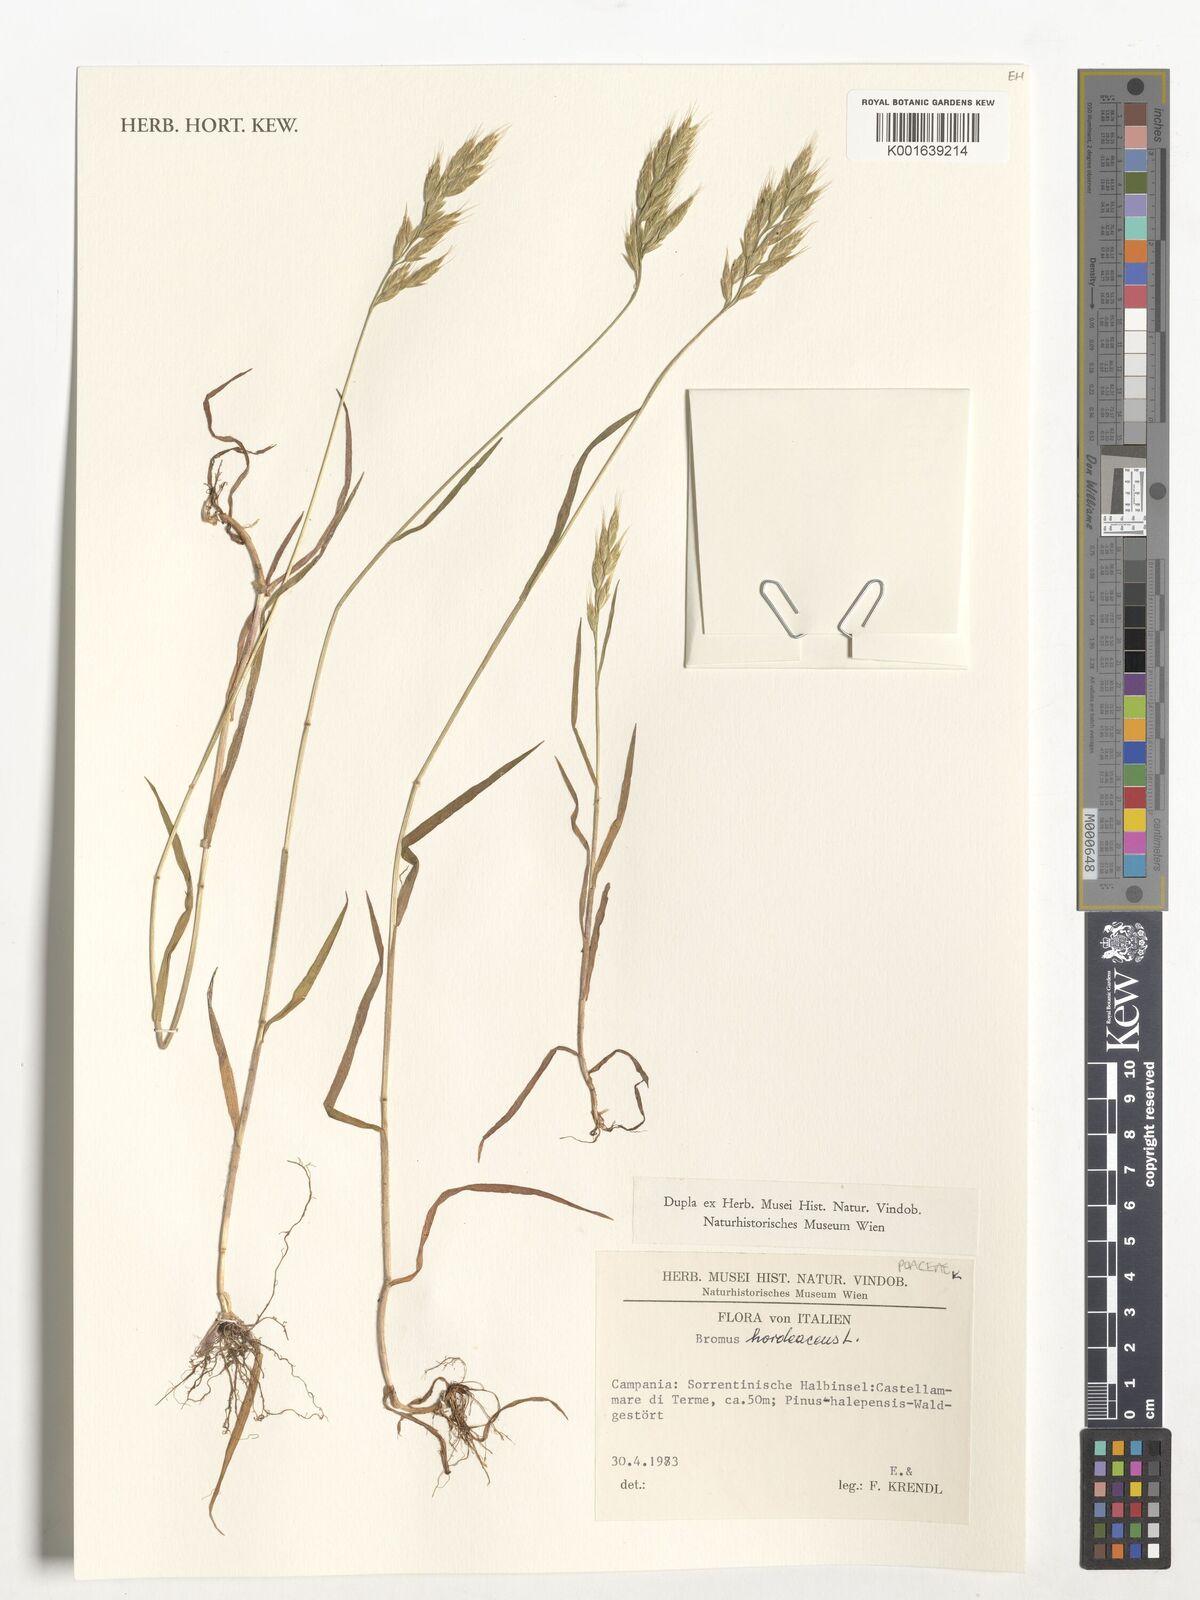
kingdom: Plantae
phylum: Tracheophyta
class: Liliopsida
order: Poales
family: Poaceae
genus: Bromus
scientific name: Bromus hordeaceus
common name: Soft brome
